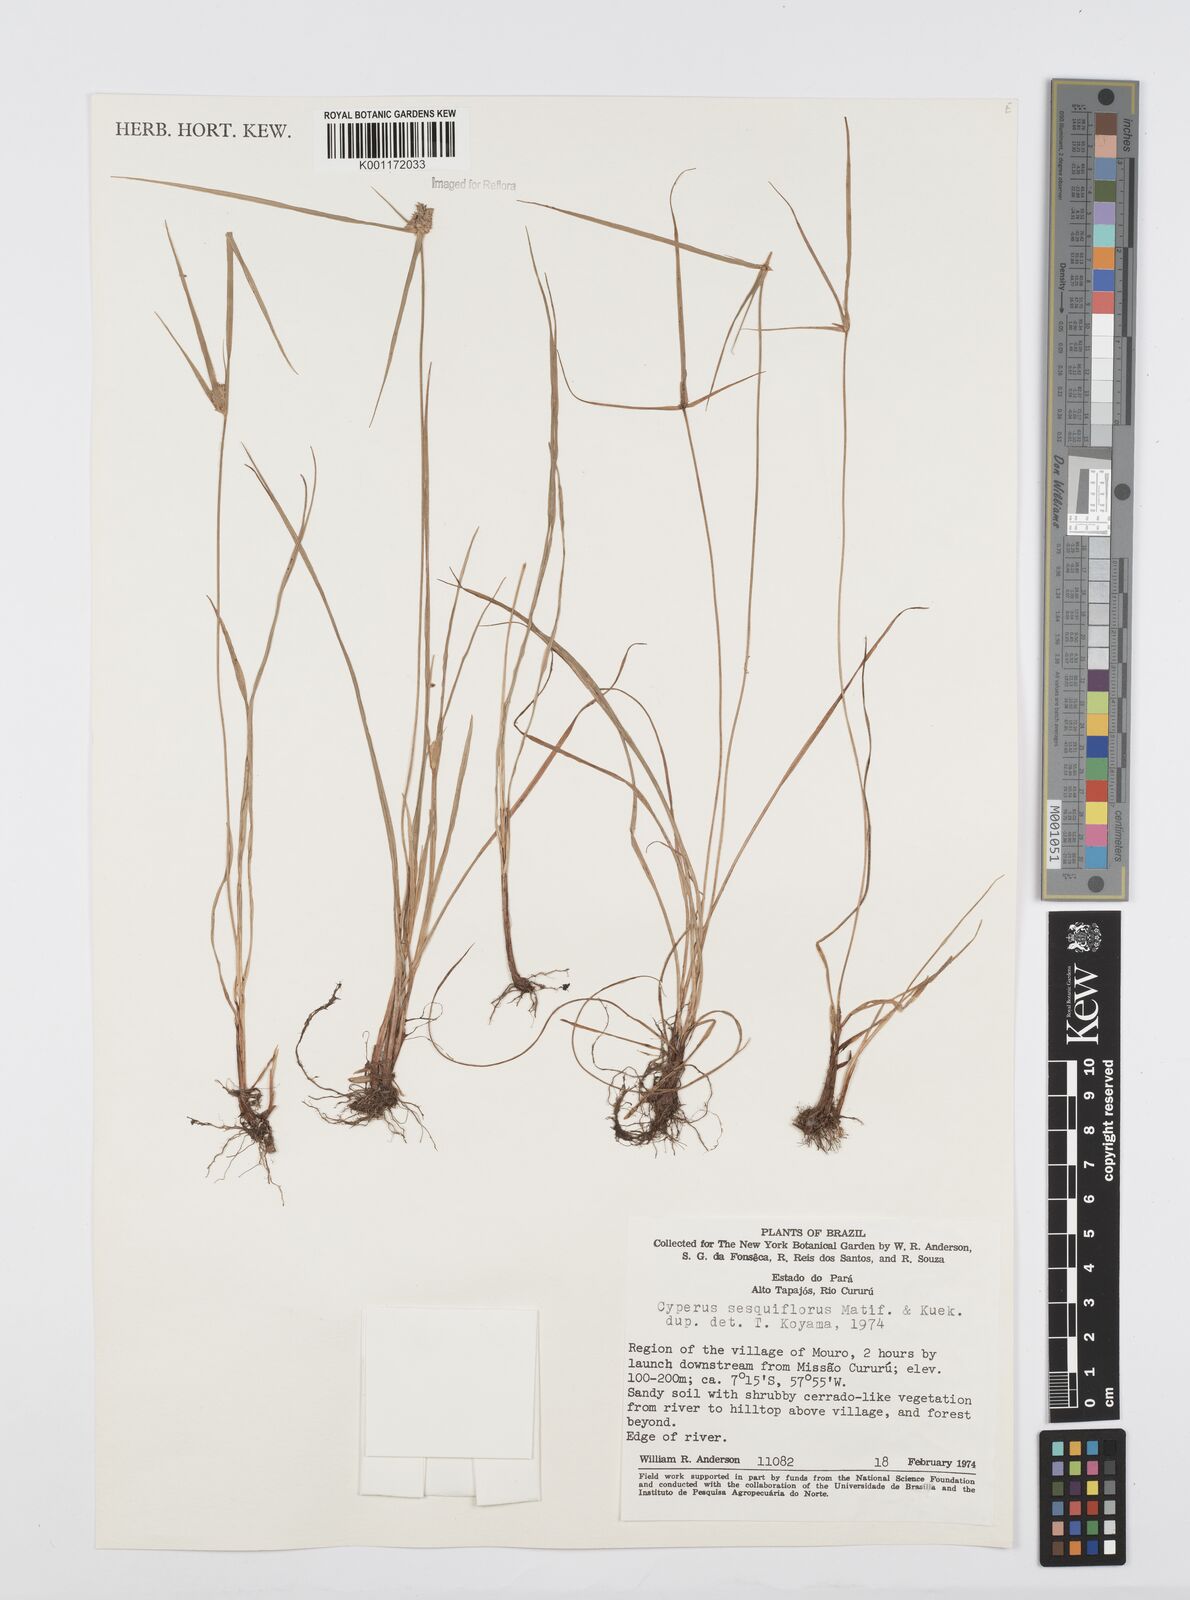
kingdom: Plantae
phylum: Tracheophyta
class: Liliopsida
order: Poales
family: Cyperaceae
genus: Cyperus
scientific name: Cyperus
